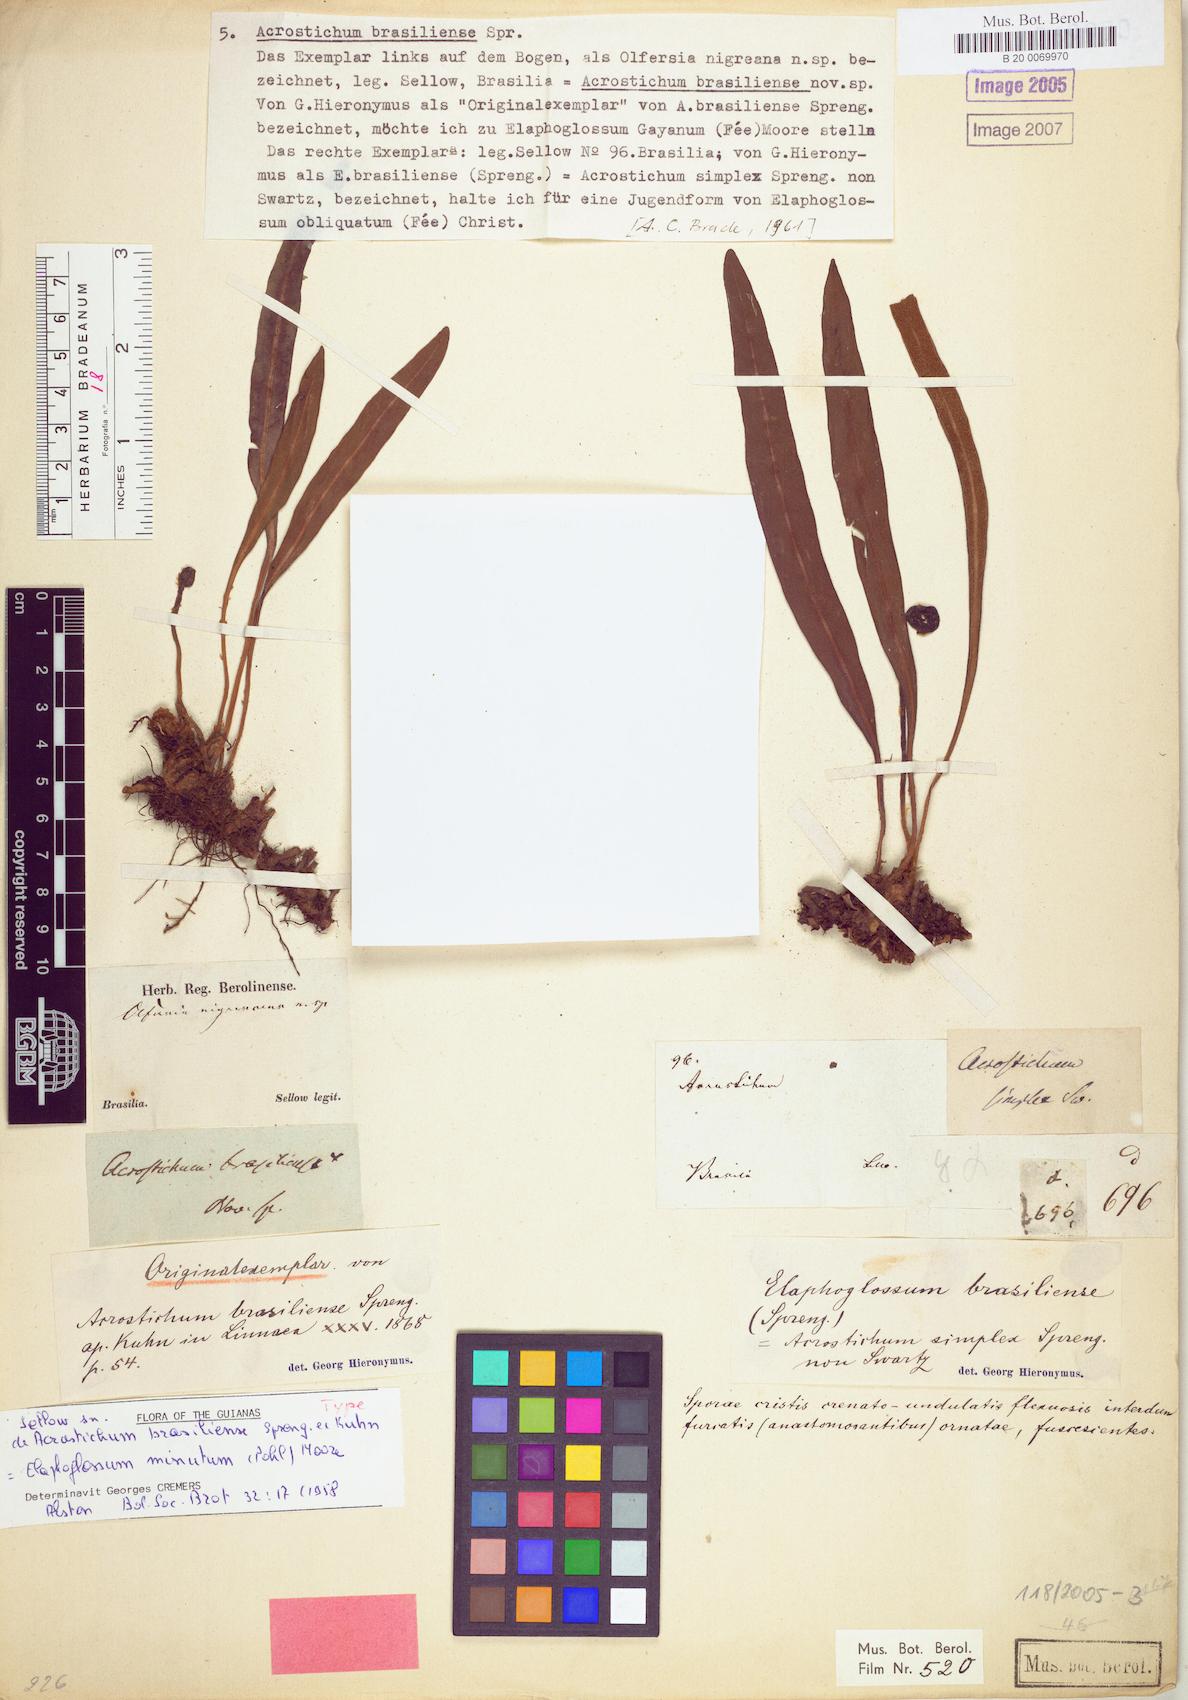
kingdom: Plantae
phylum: Tracheophyta
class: Polypodiopsida
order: Polypodiales
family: Dryopteridaceae
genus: Elaphoglossum
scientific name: Elaphoglossum minutum
